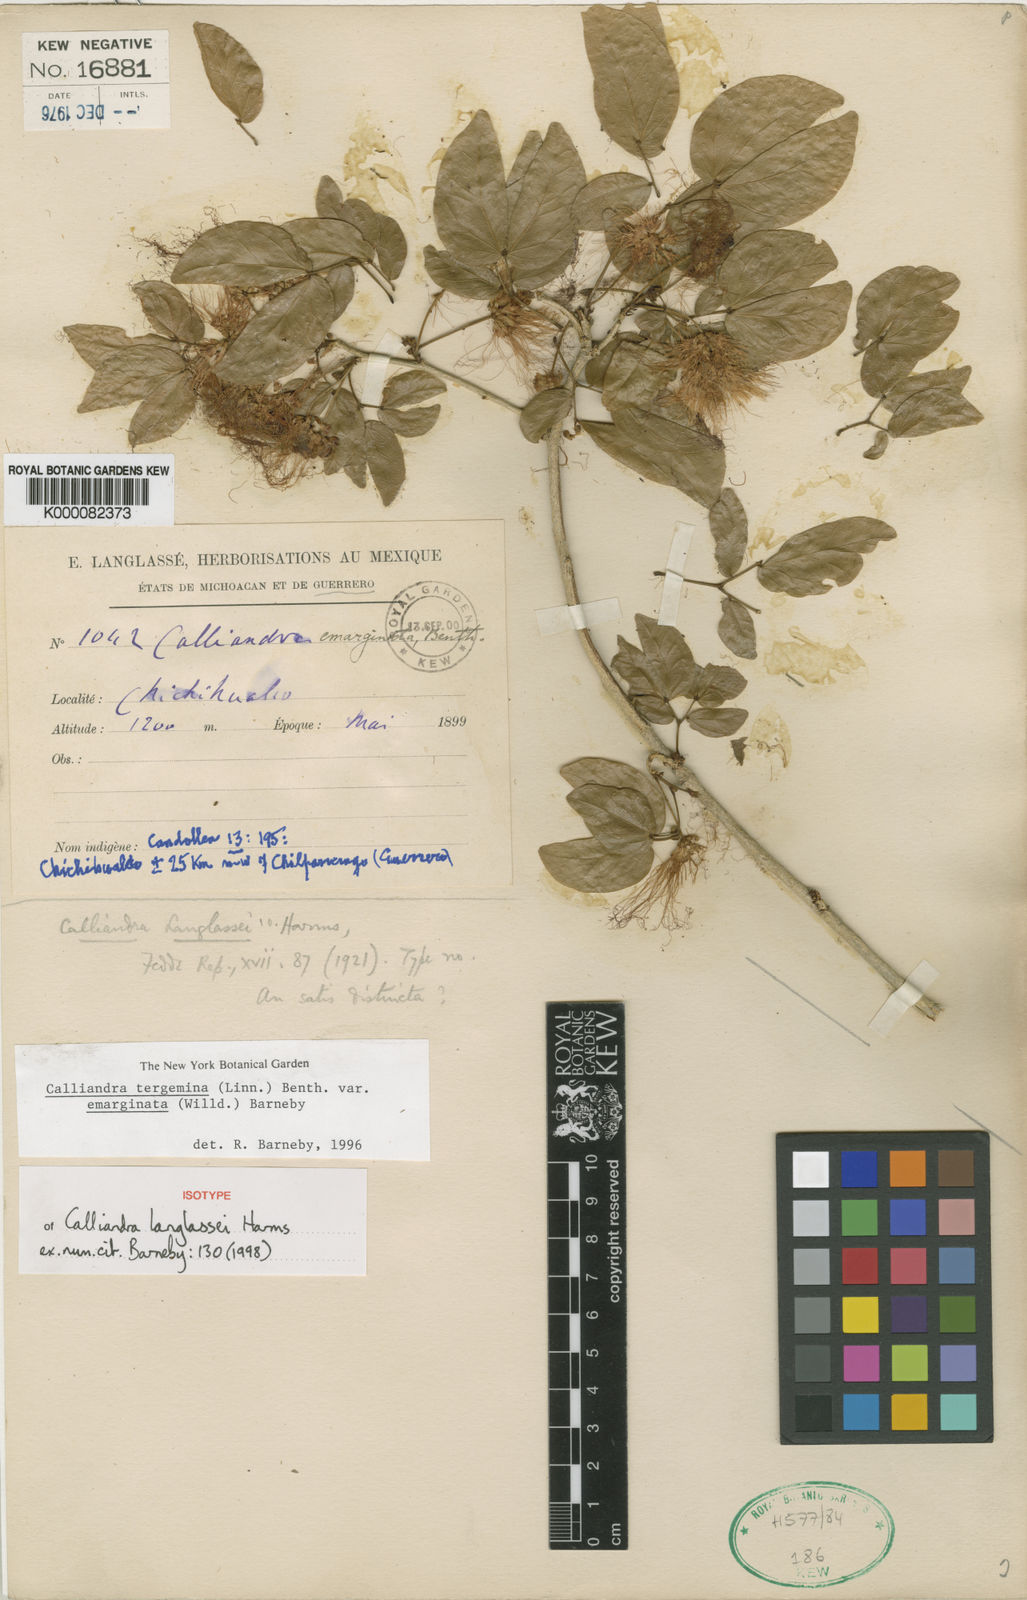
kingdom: Plantae
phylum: Tracheophyta
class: Magnoliopsida
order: Fabales
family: Fabaceae
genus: Calliandra
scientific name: Calliandra tergemina
